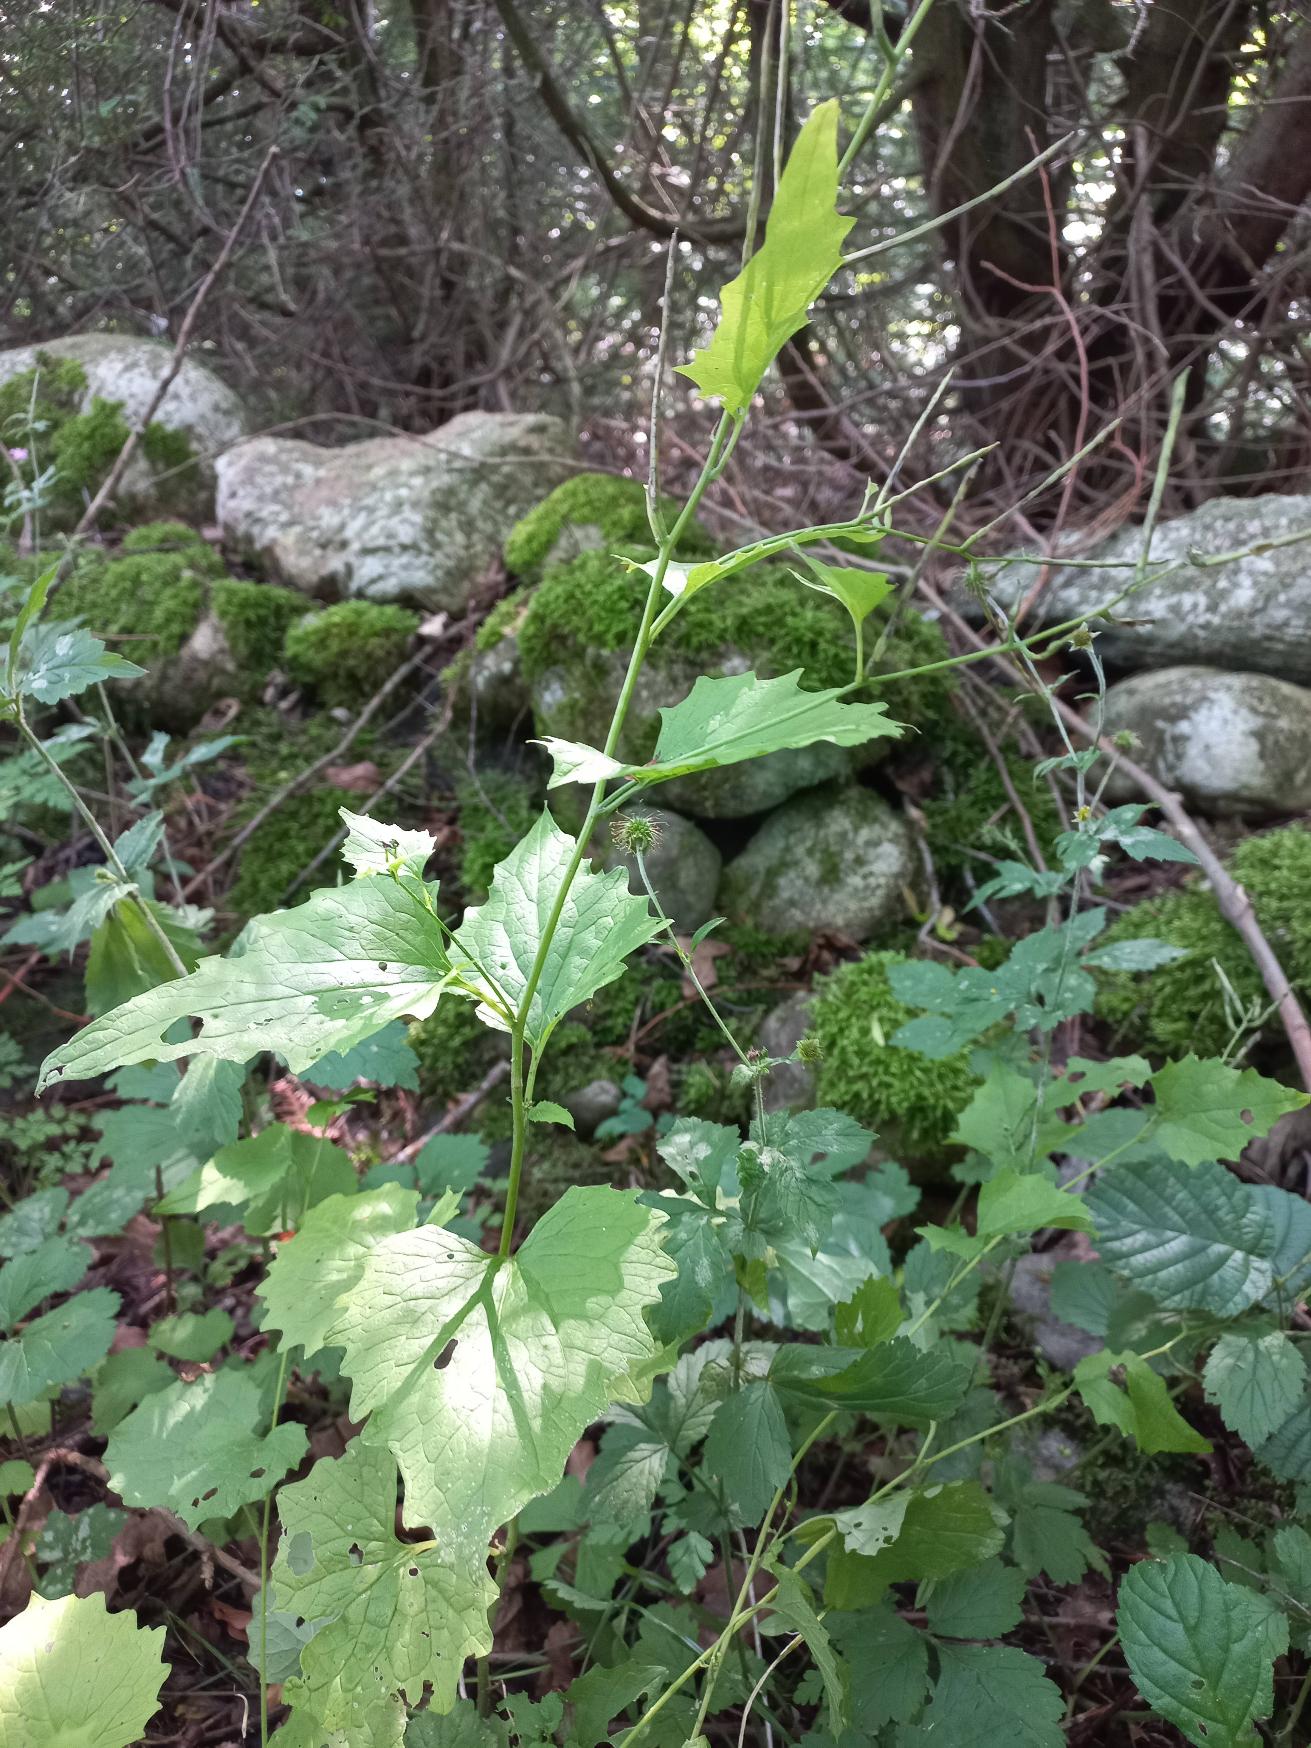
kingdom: Plantae
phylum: Tracheophyta
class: Magnoliopsida
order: Brassicales
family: Brassicaceae
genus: Alliaria
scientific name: Alliaria petiolata
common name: Løgkarse
